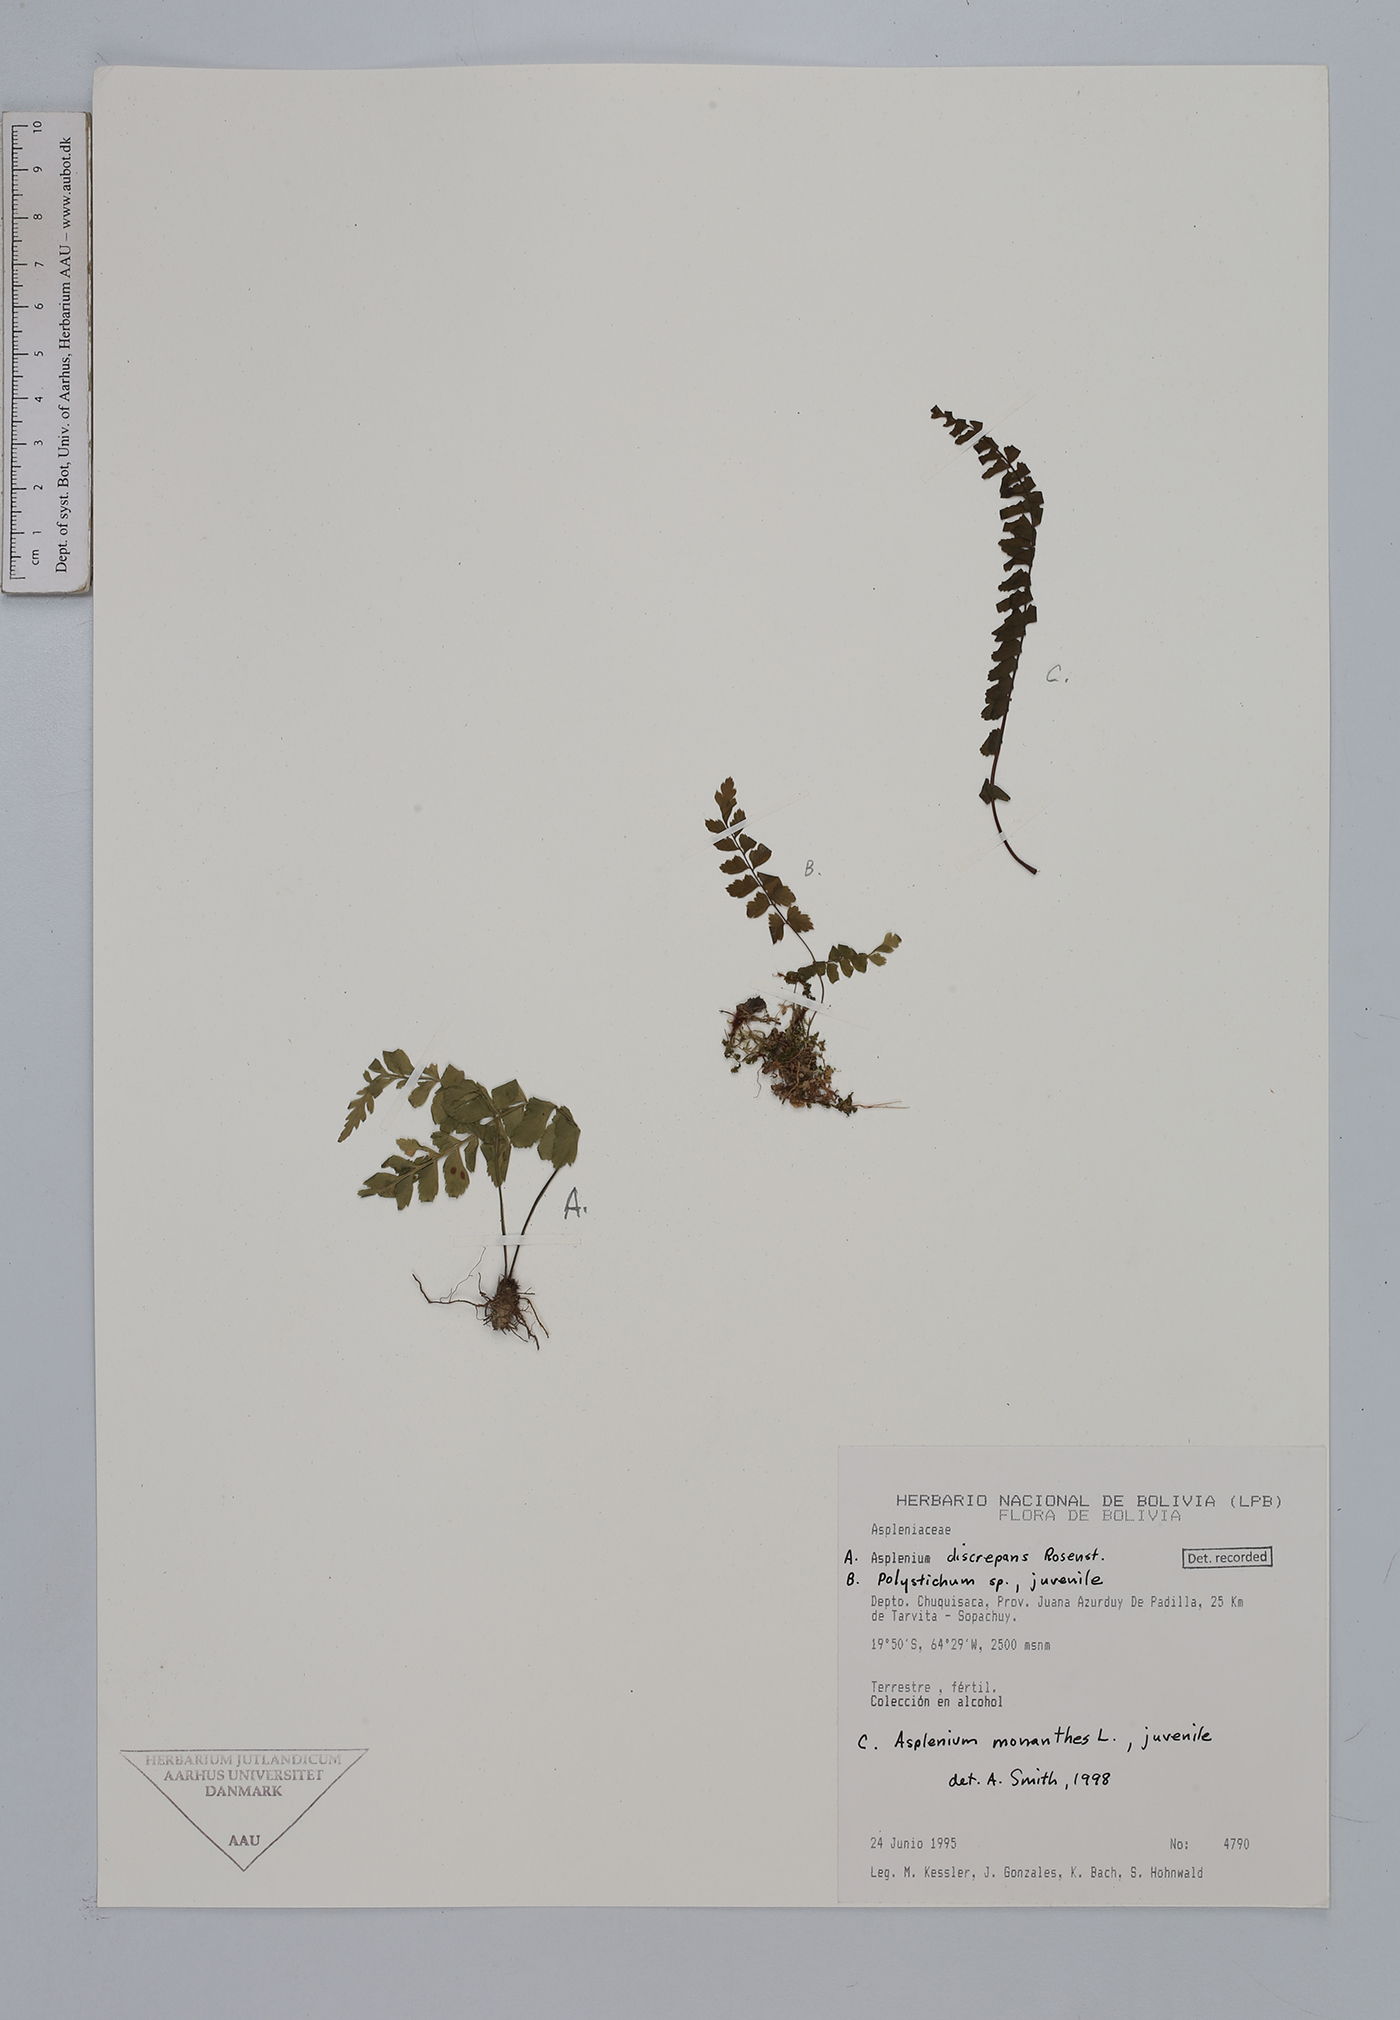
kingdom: Plantae
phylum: Tracheophyta
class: Polypodiopsida
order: Polypodiales
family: Aspleniaceae
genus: Asplenium
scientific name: Asplenium discrepans
